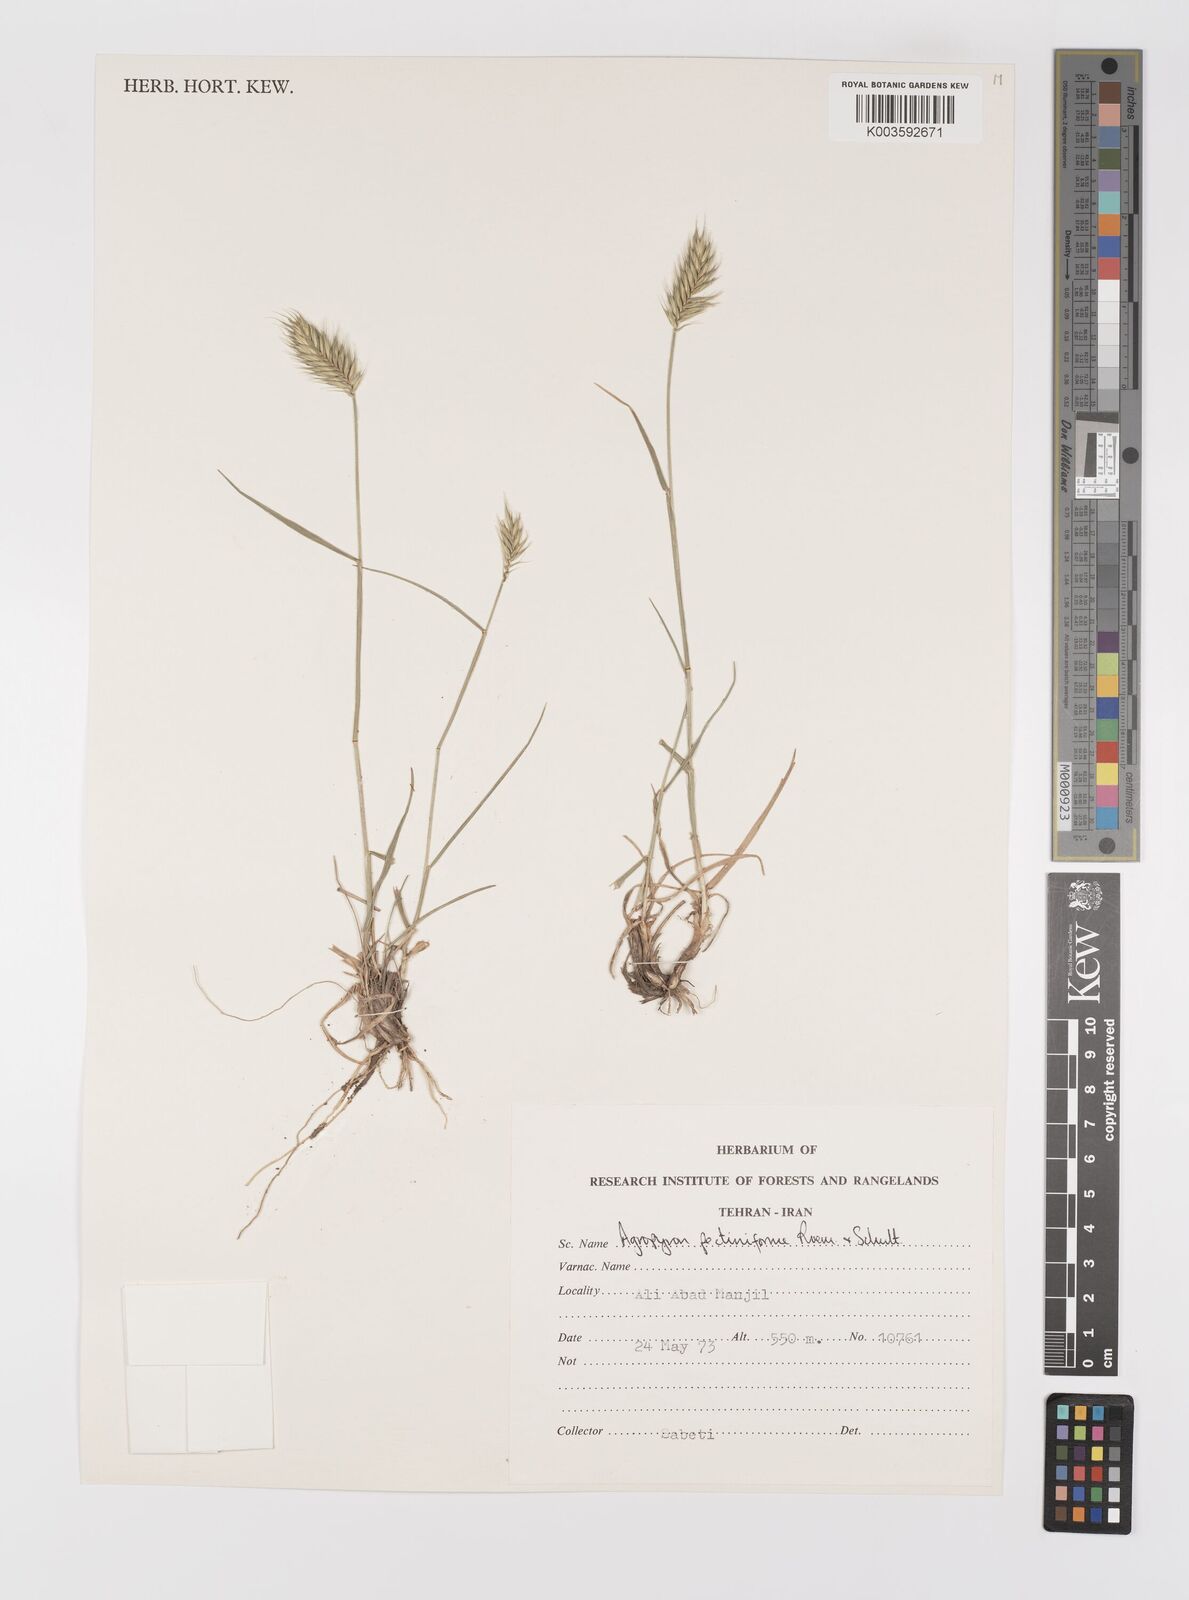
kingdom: Plantae
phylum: Tracheophyta
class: Liliopsida
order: Poales
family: Poaceae
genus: Agropyron
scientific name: Agropyron
